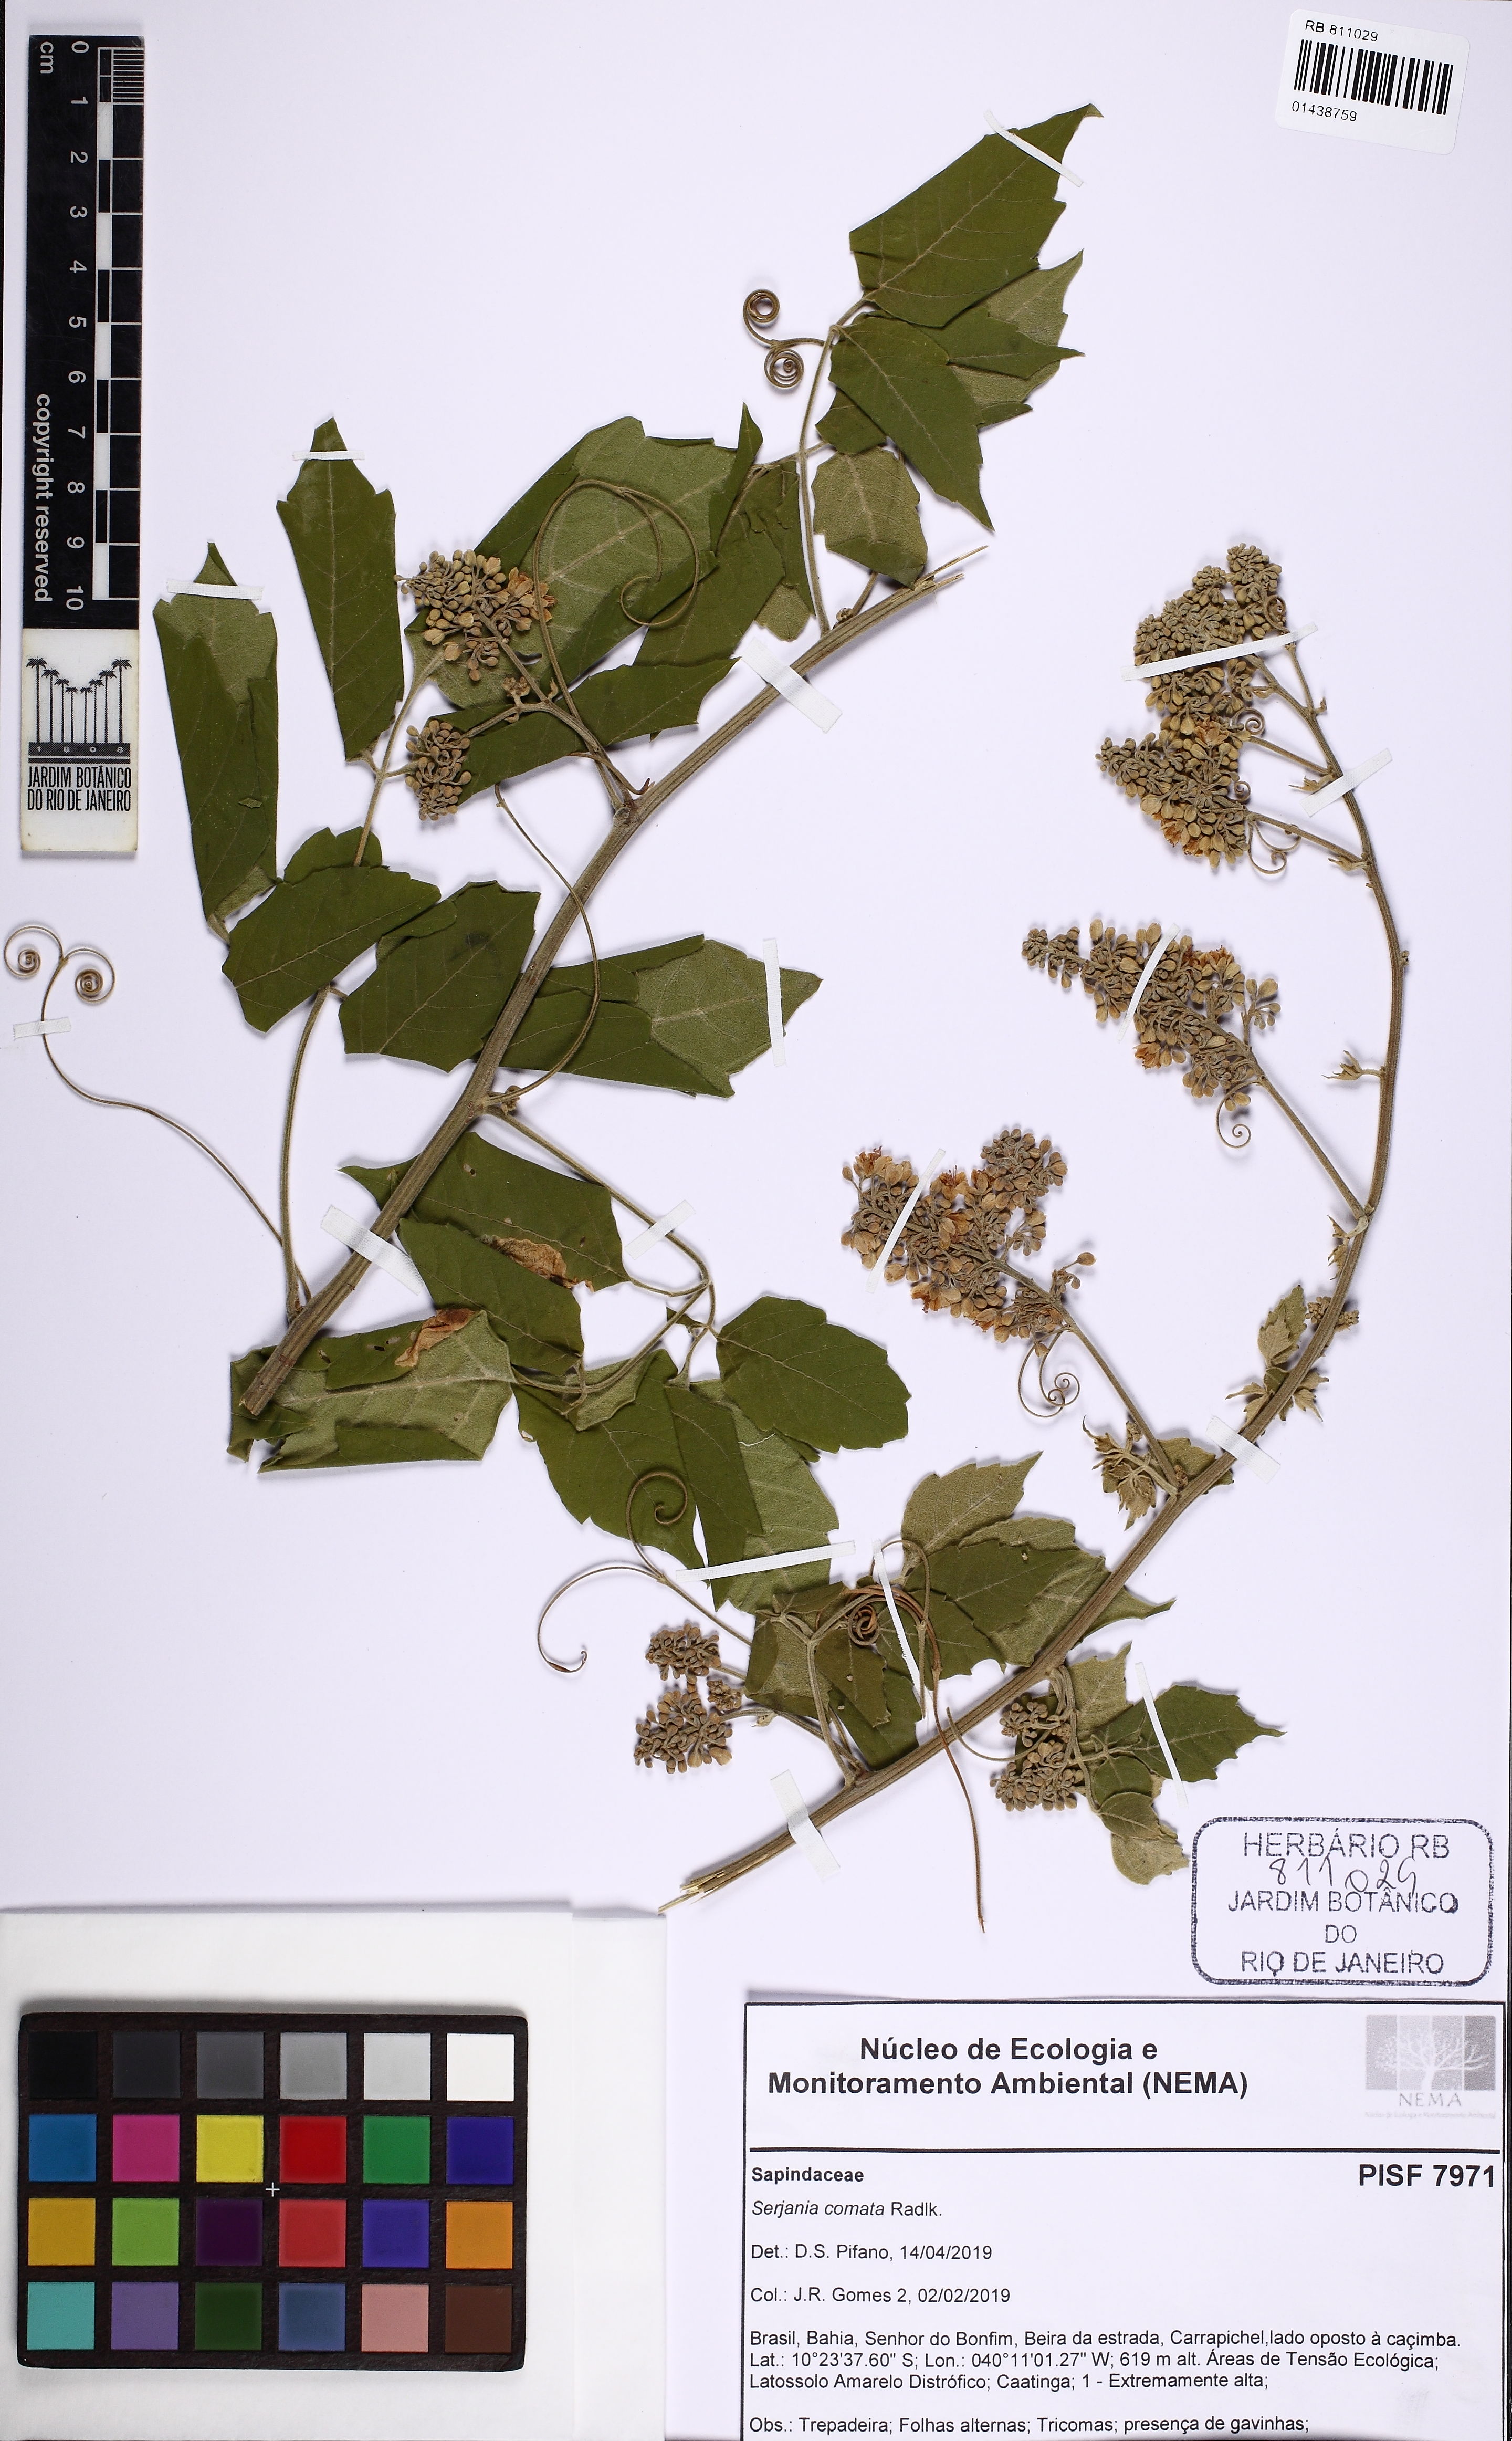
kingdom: Plantae
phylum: Tracheophyta
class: Magnoliopsida
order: Sapindales
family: Sapindaceae
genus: Serjania
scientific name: Serjania comata
